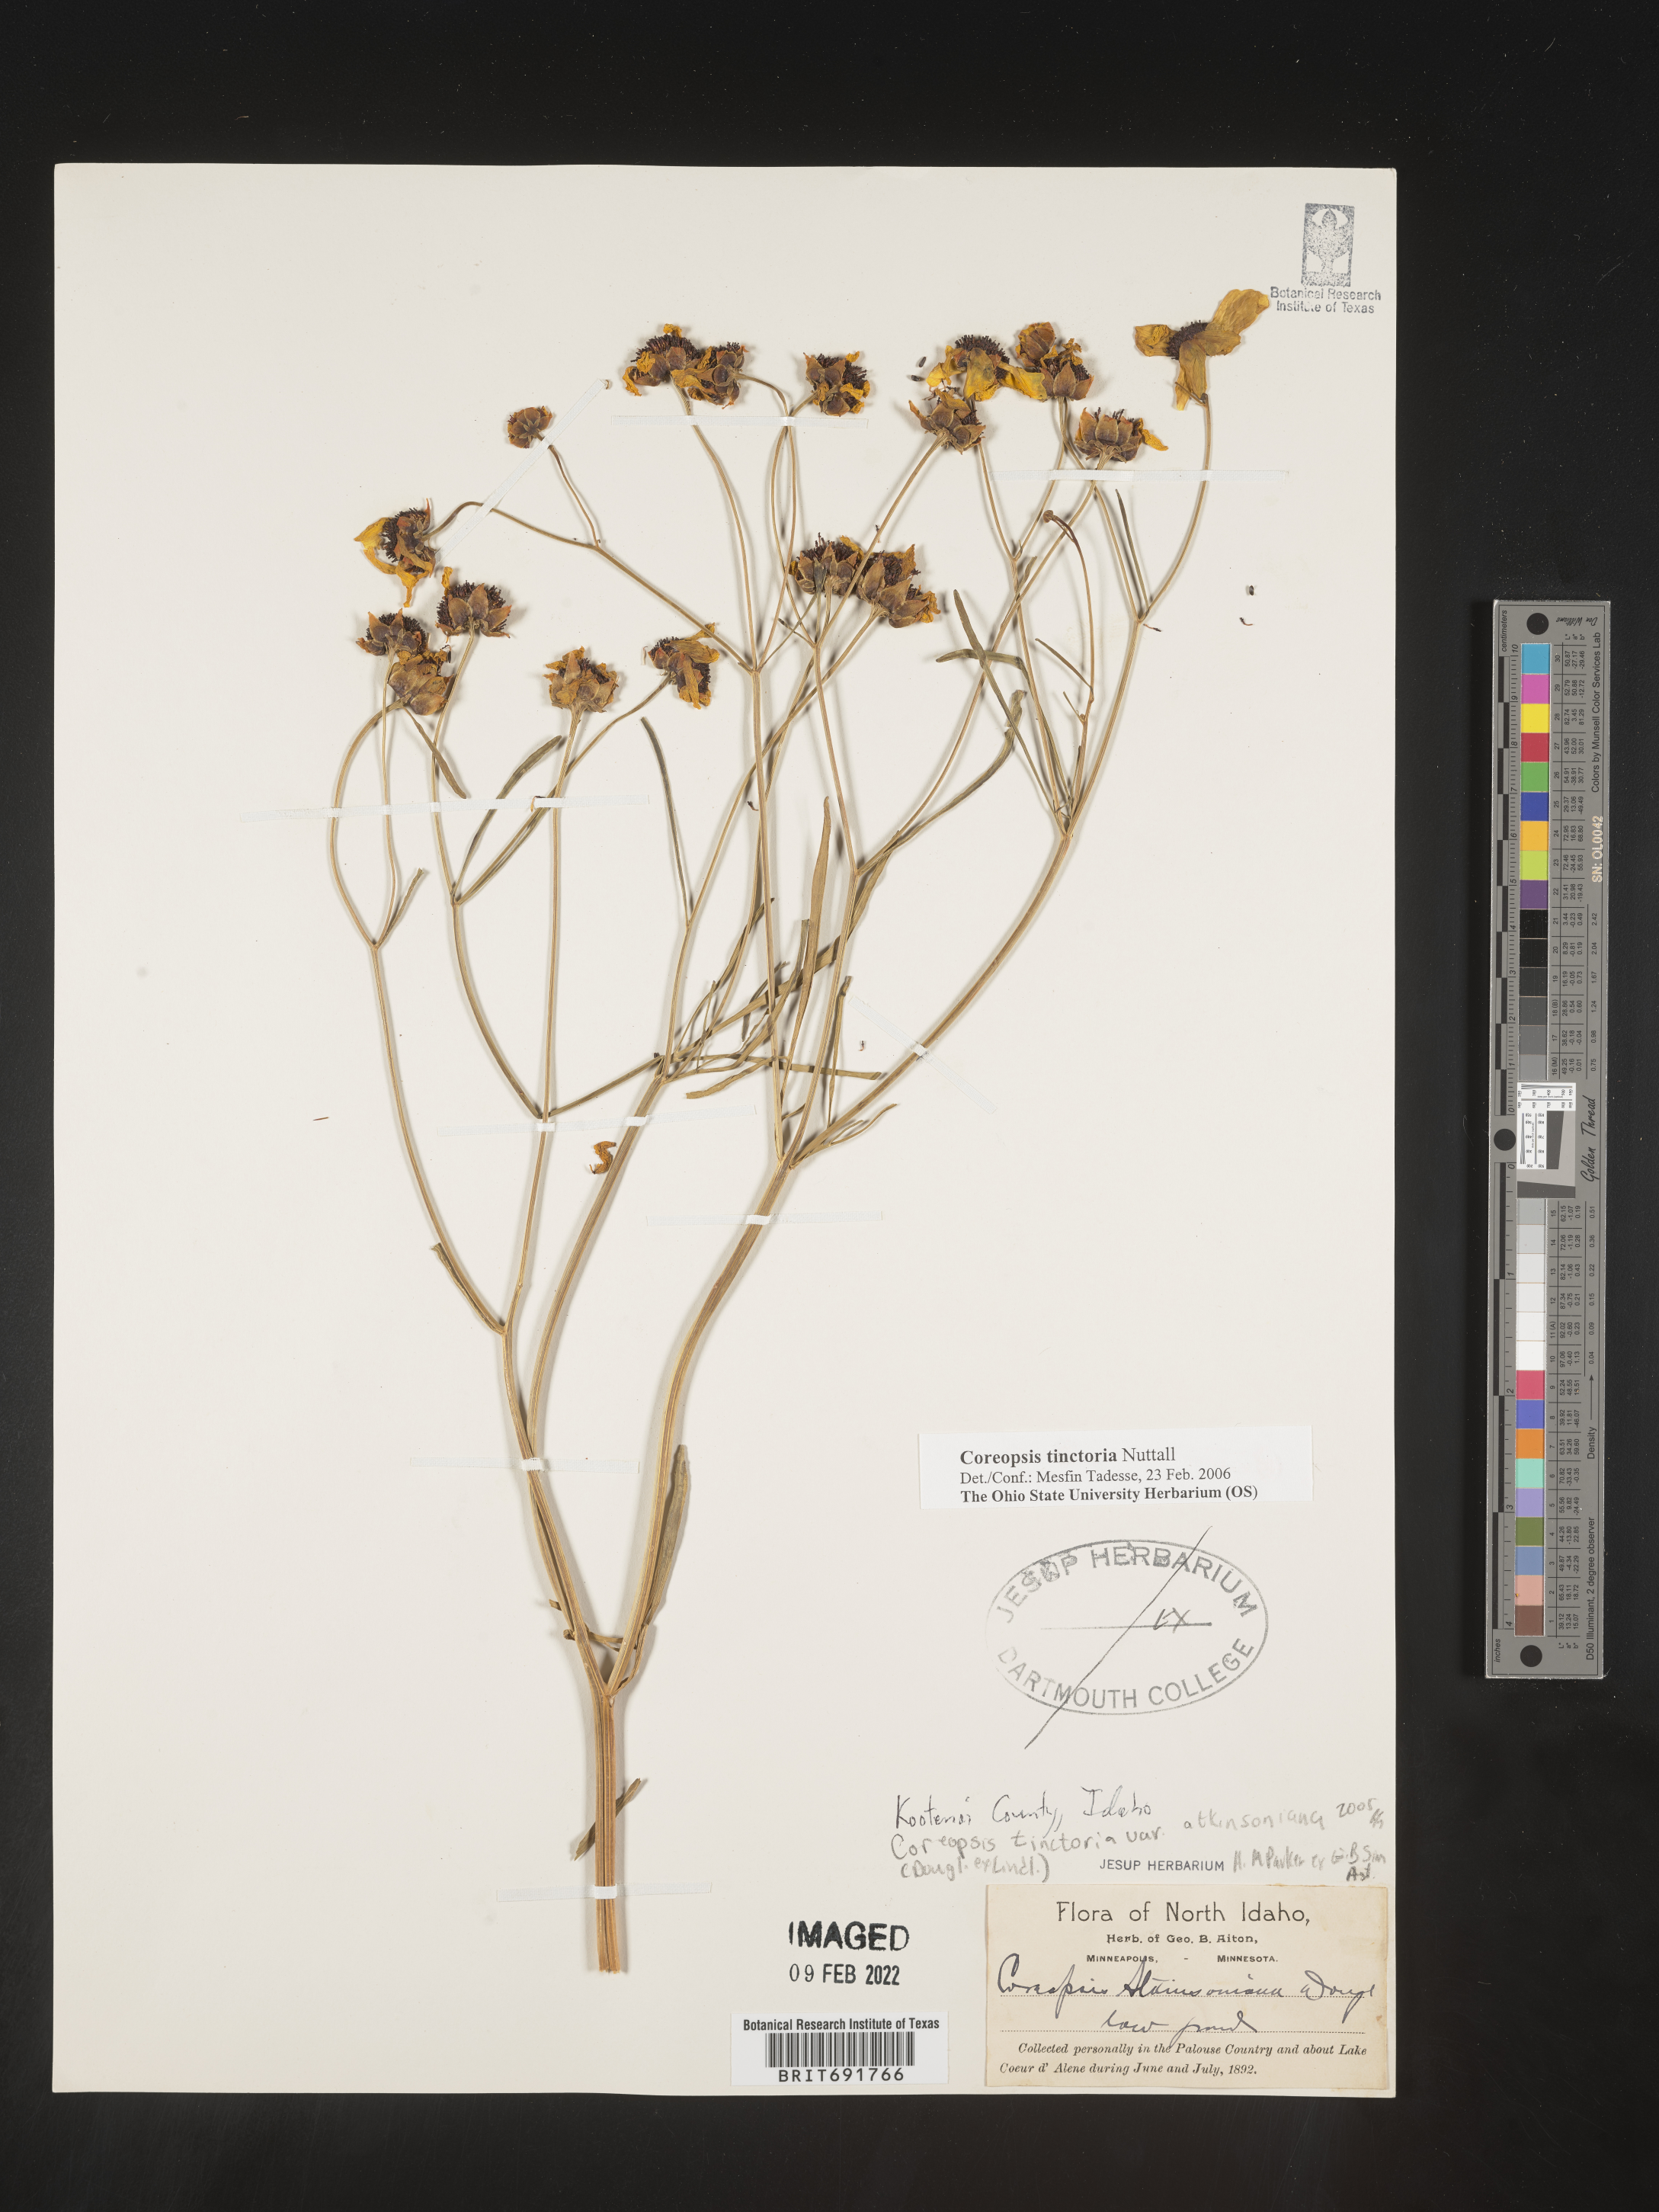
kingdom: Plantae
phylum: Tracheophyta
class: Magnoliopsida
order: Asterales
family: Asteraceae
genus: Coreopsis
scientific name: Coreopsis tinctoria
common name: Garden tickseed
